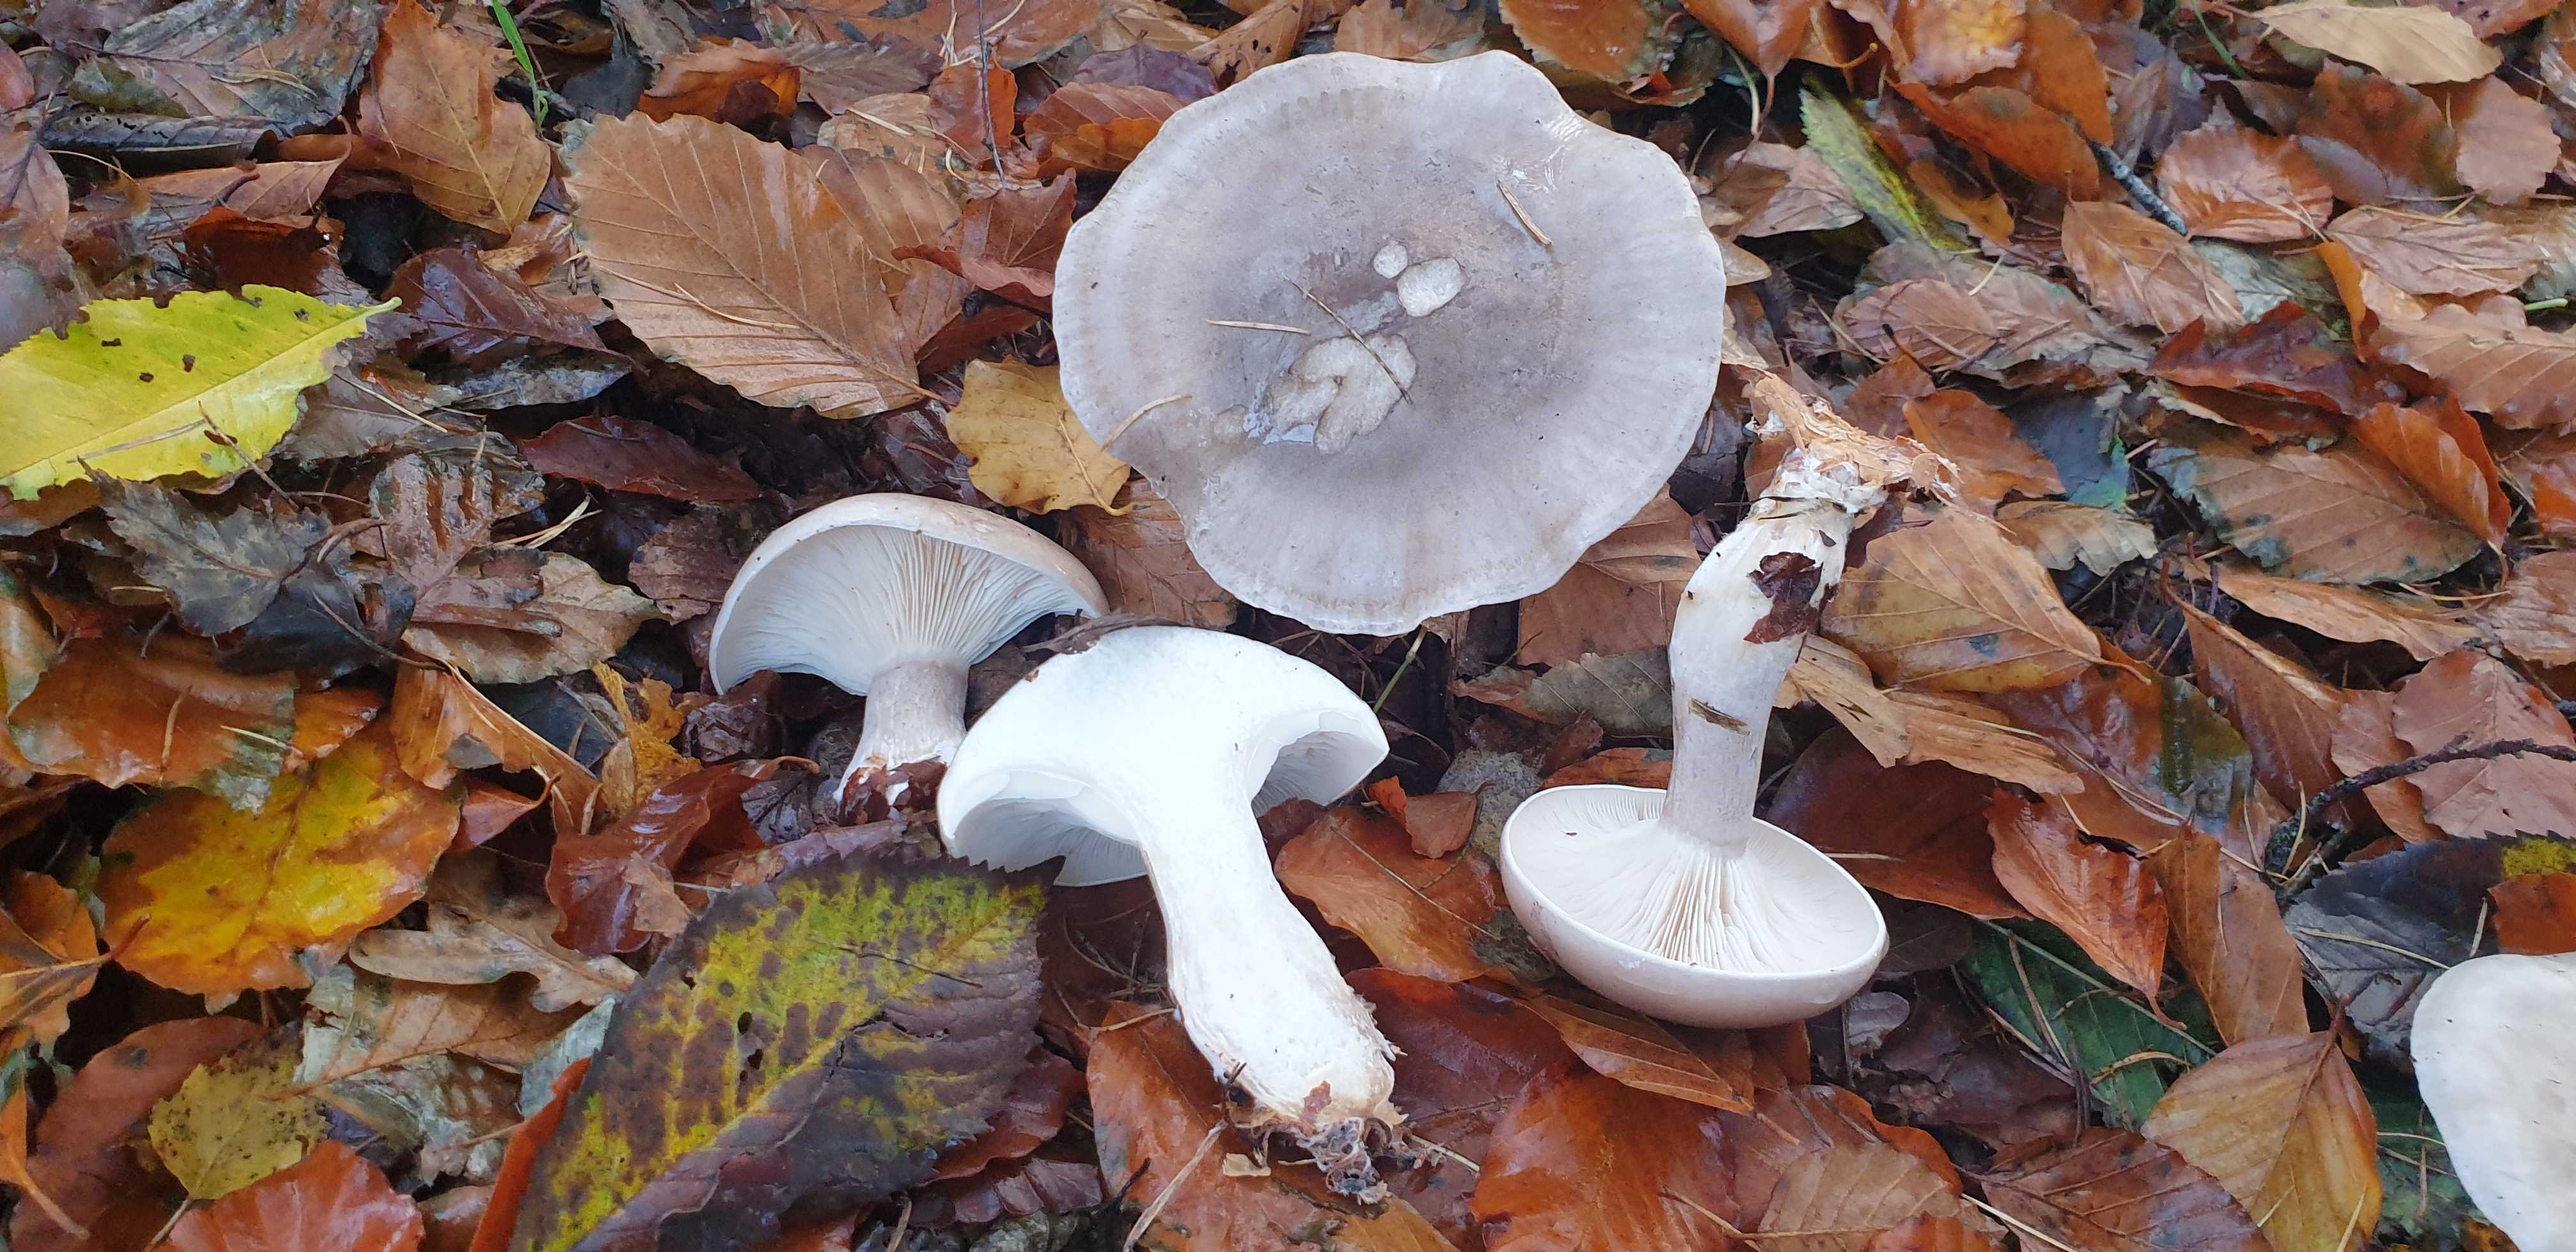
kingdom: Fungi
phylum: Basidiomycota
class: Agaricomycetes
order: Agaricales
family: Tricholomataceae
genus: Clitocybe
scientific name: Clitocybe nebularis
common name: tåge-tragthat
